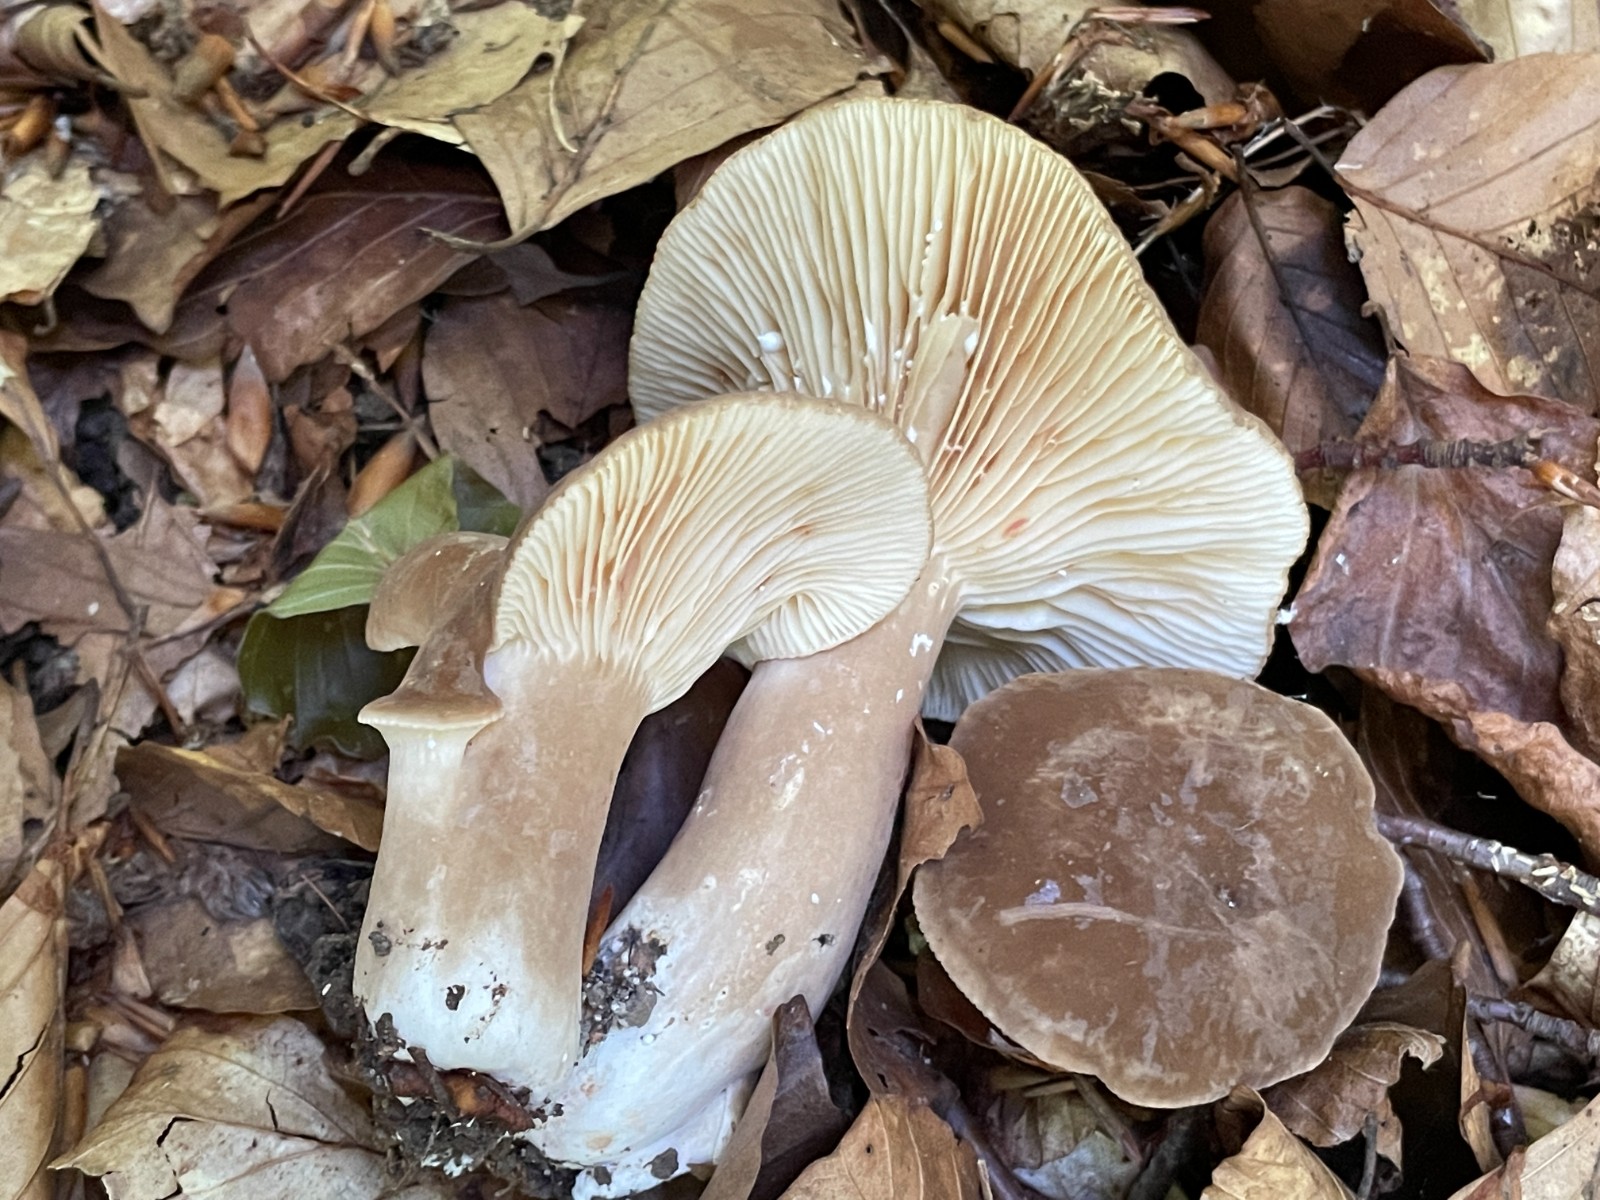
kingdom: Fungi
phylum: Basidiomycota
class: Agaricomycetes
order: Russulales
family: Russulaceae
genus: Lactarius
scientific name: Lactarius
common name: mælkehat
